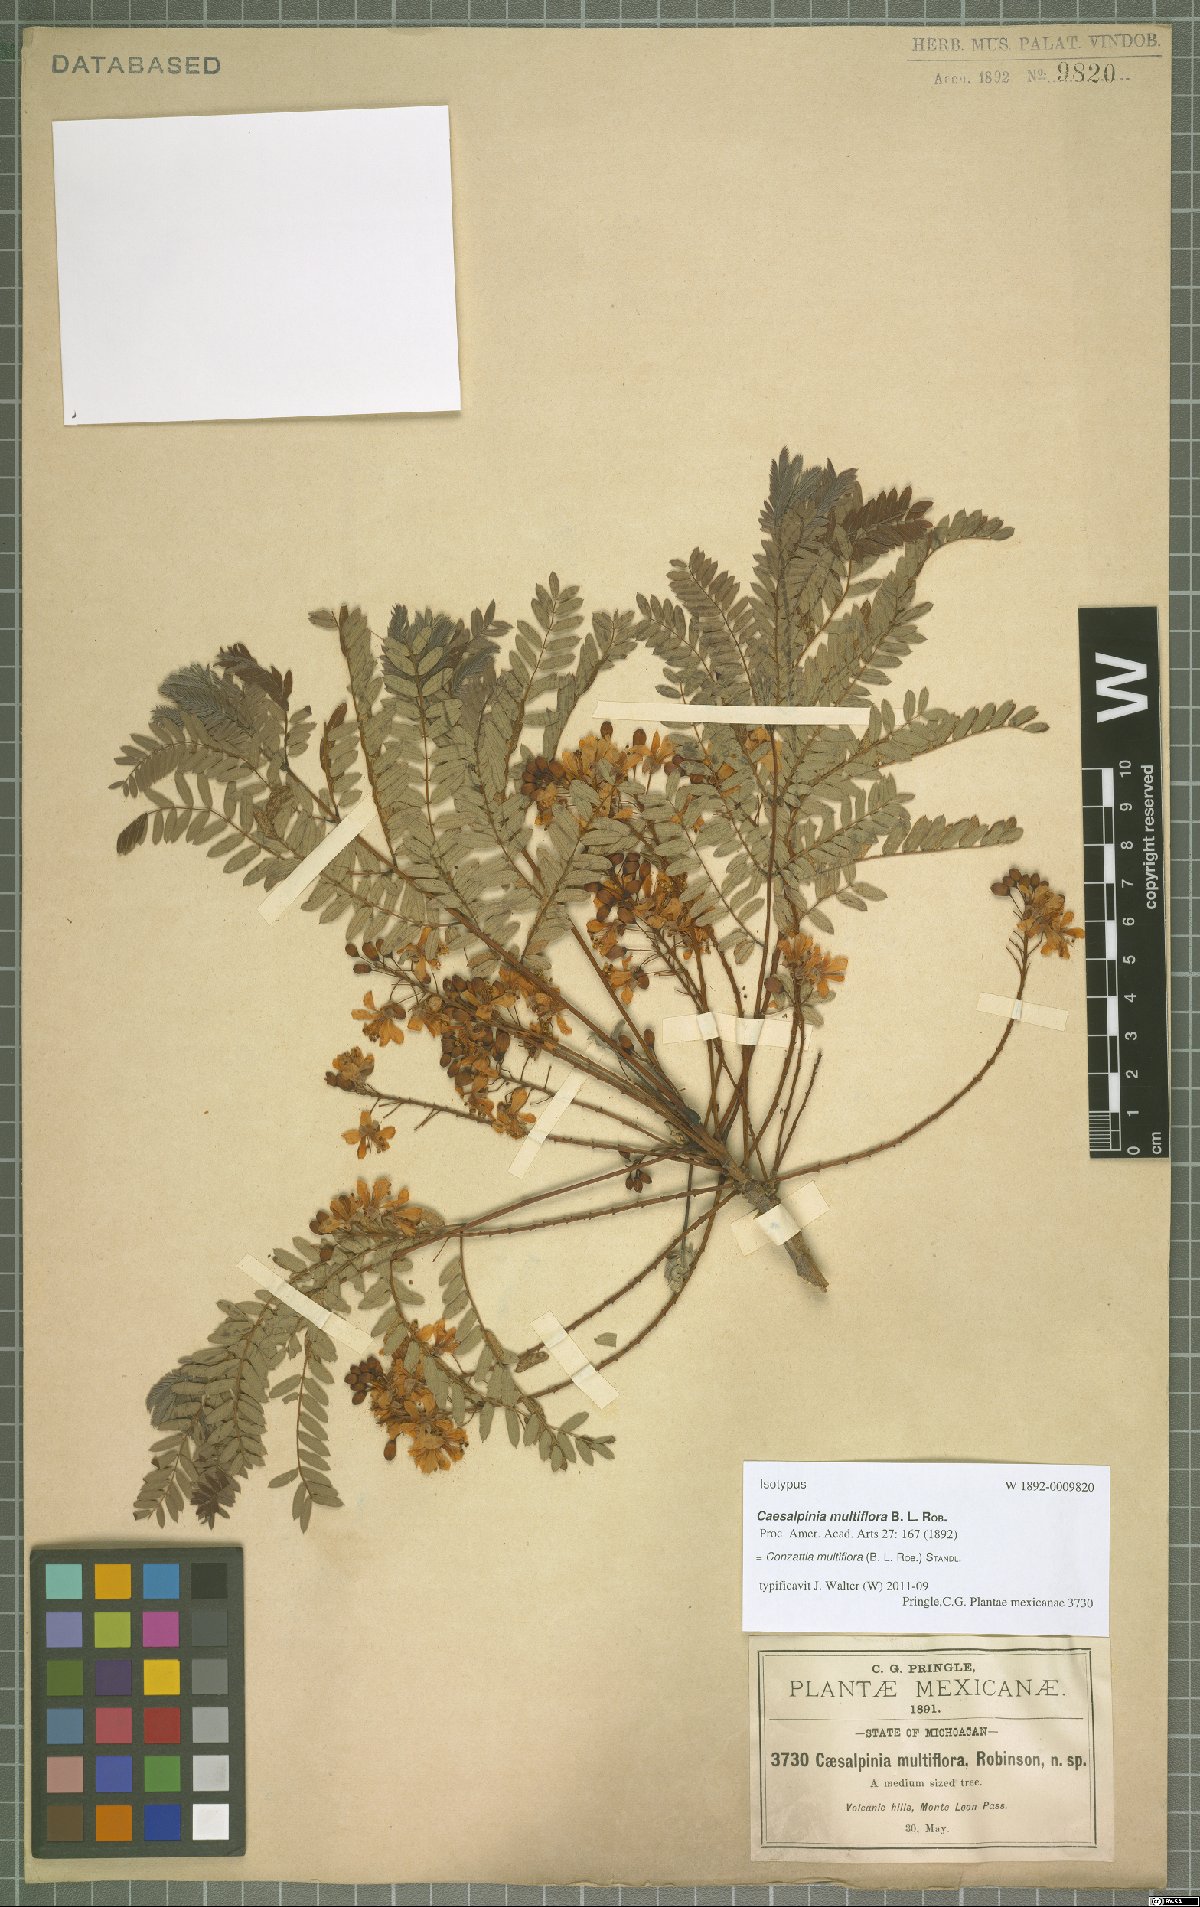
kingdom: Plantae
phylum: Tracheophyta
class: Magnoliopsida
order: Fabales
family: Fabaceae
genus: Conzattia
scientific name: Conzattia multiflora
